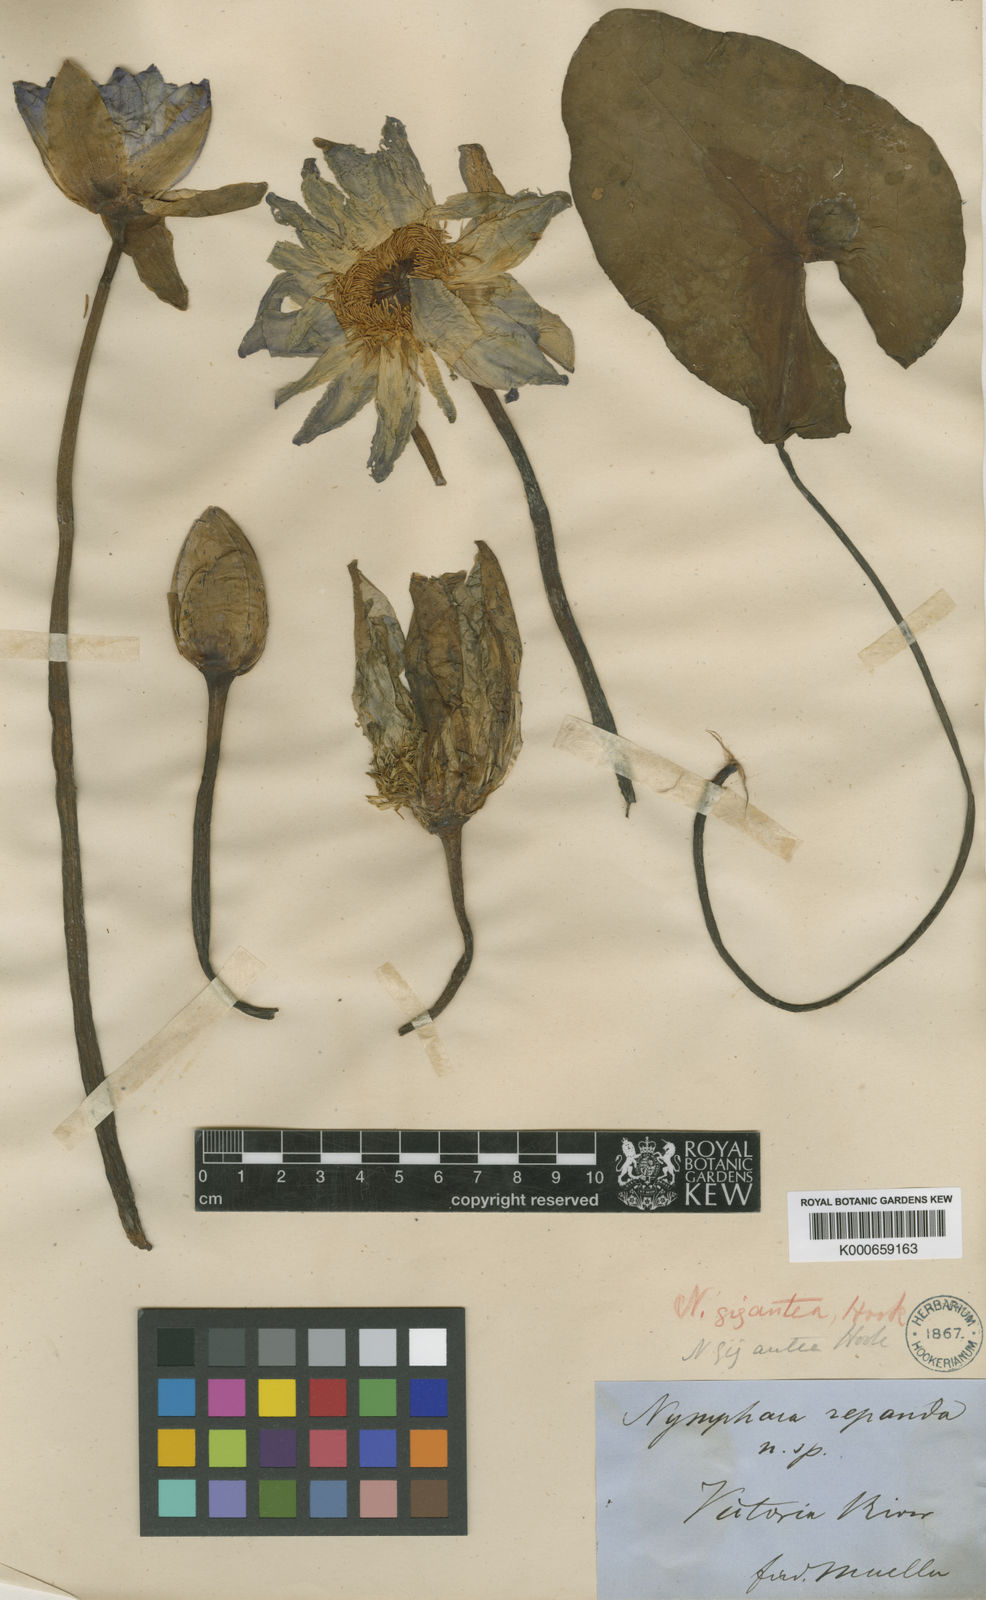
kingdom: Plantae
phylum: Tracheophyta
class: Magnoliopsida
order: Nymphaeales
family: Nymphaeaceae
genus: Nymphaea
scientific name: Nymphaea violacea
